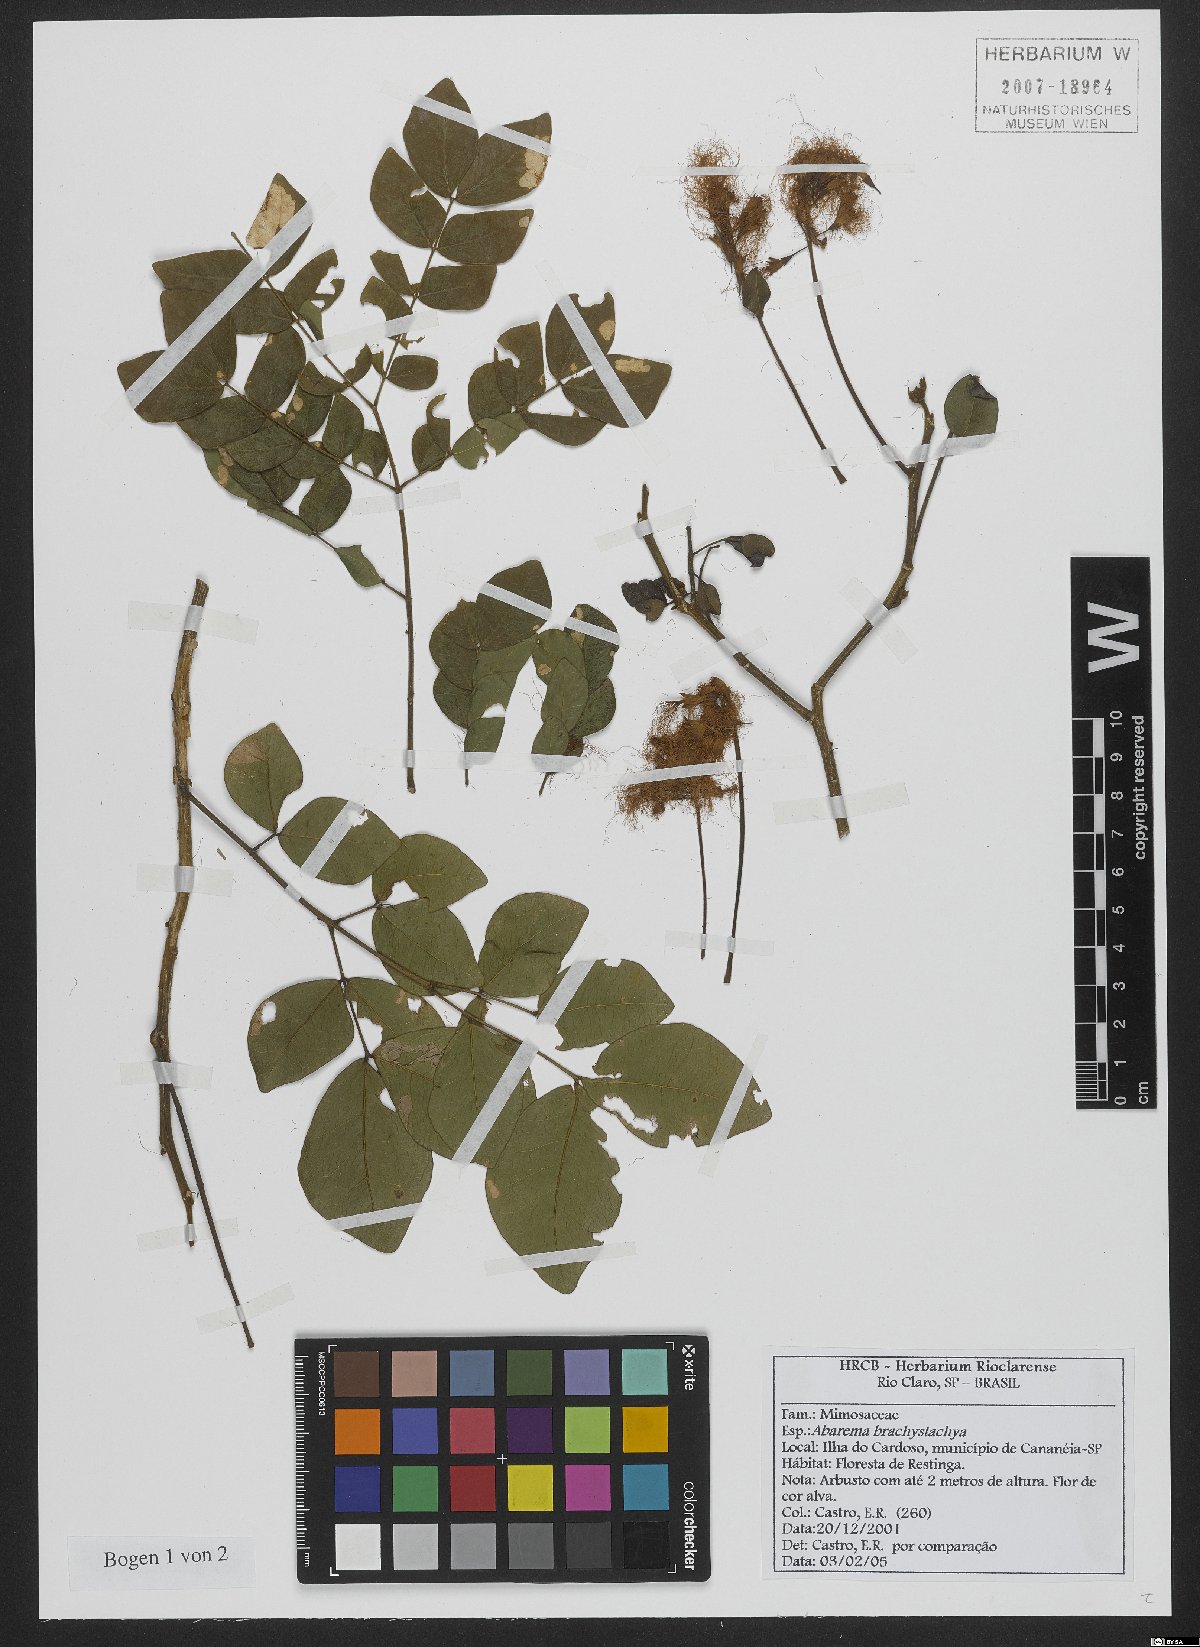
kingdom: Plantae
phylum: Tracheophyta
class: Magnoliopsida
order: Fabales
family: Fabaceae
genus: Jupunba
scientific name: Jupunba brachystachya
